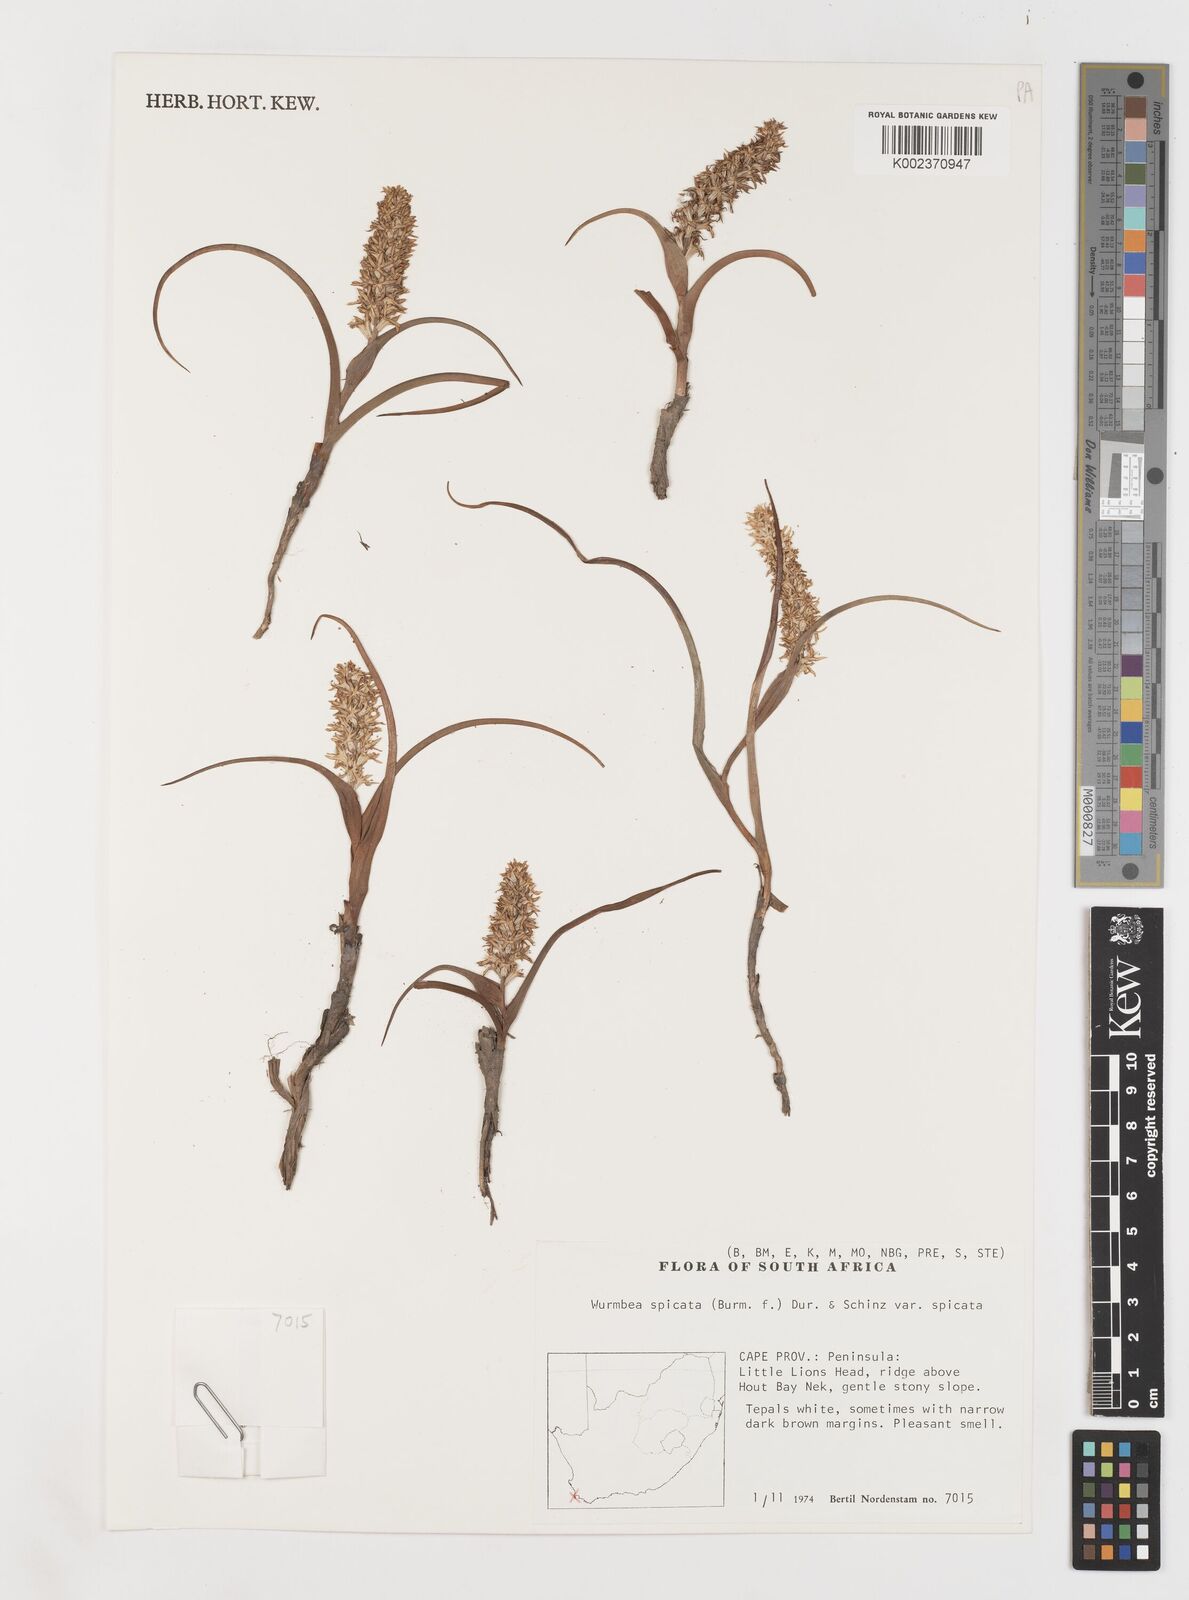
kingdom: Plantae
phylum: Tracheophyta
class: Liliopsida
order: Liliales
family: Colchicaceae
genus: Wurmbea
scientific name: Wurmbea spicata
